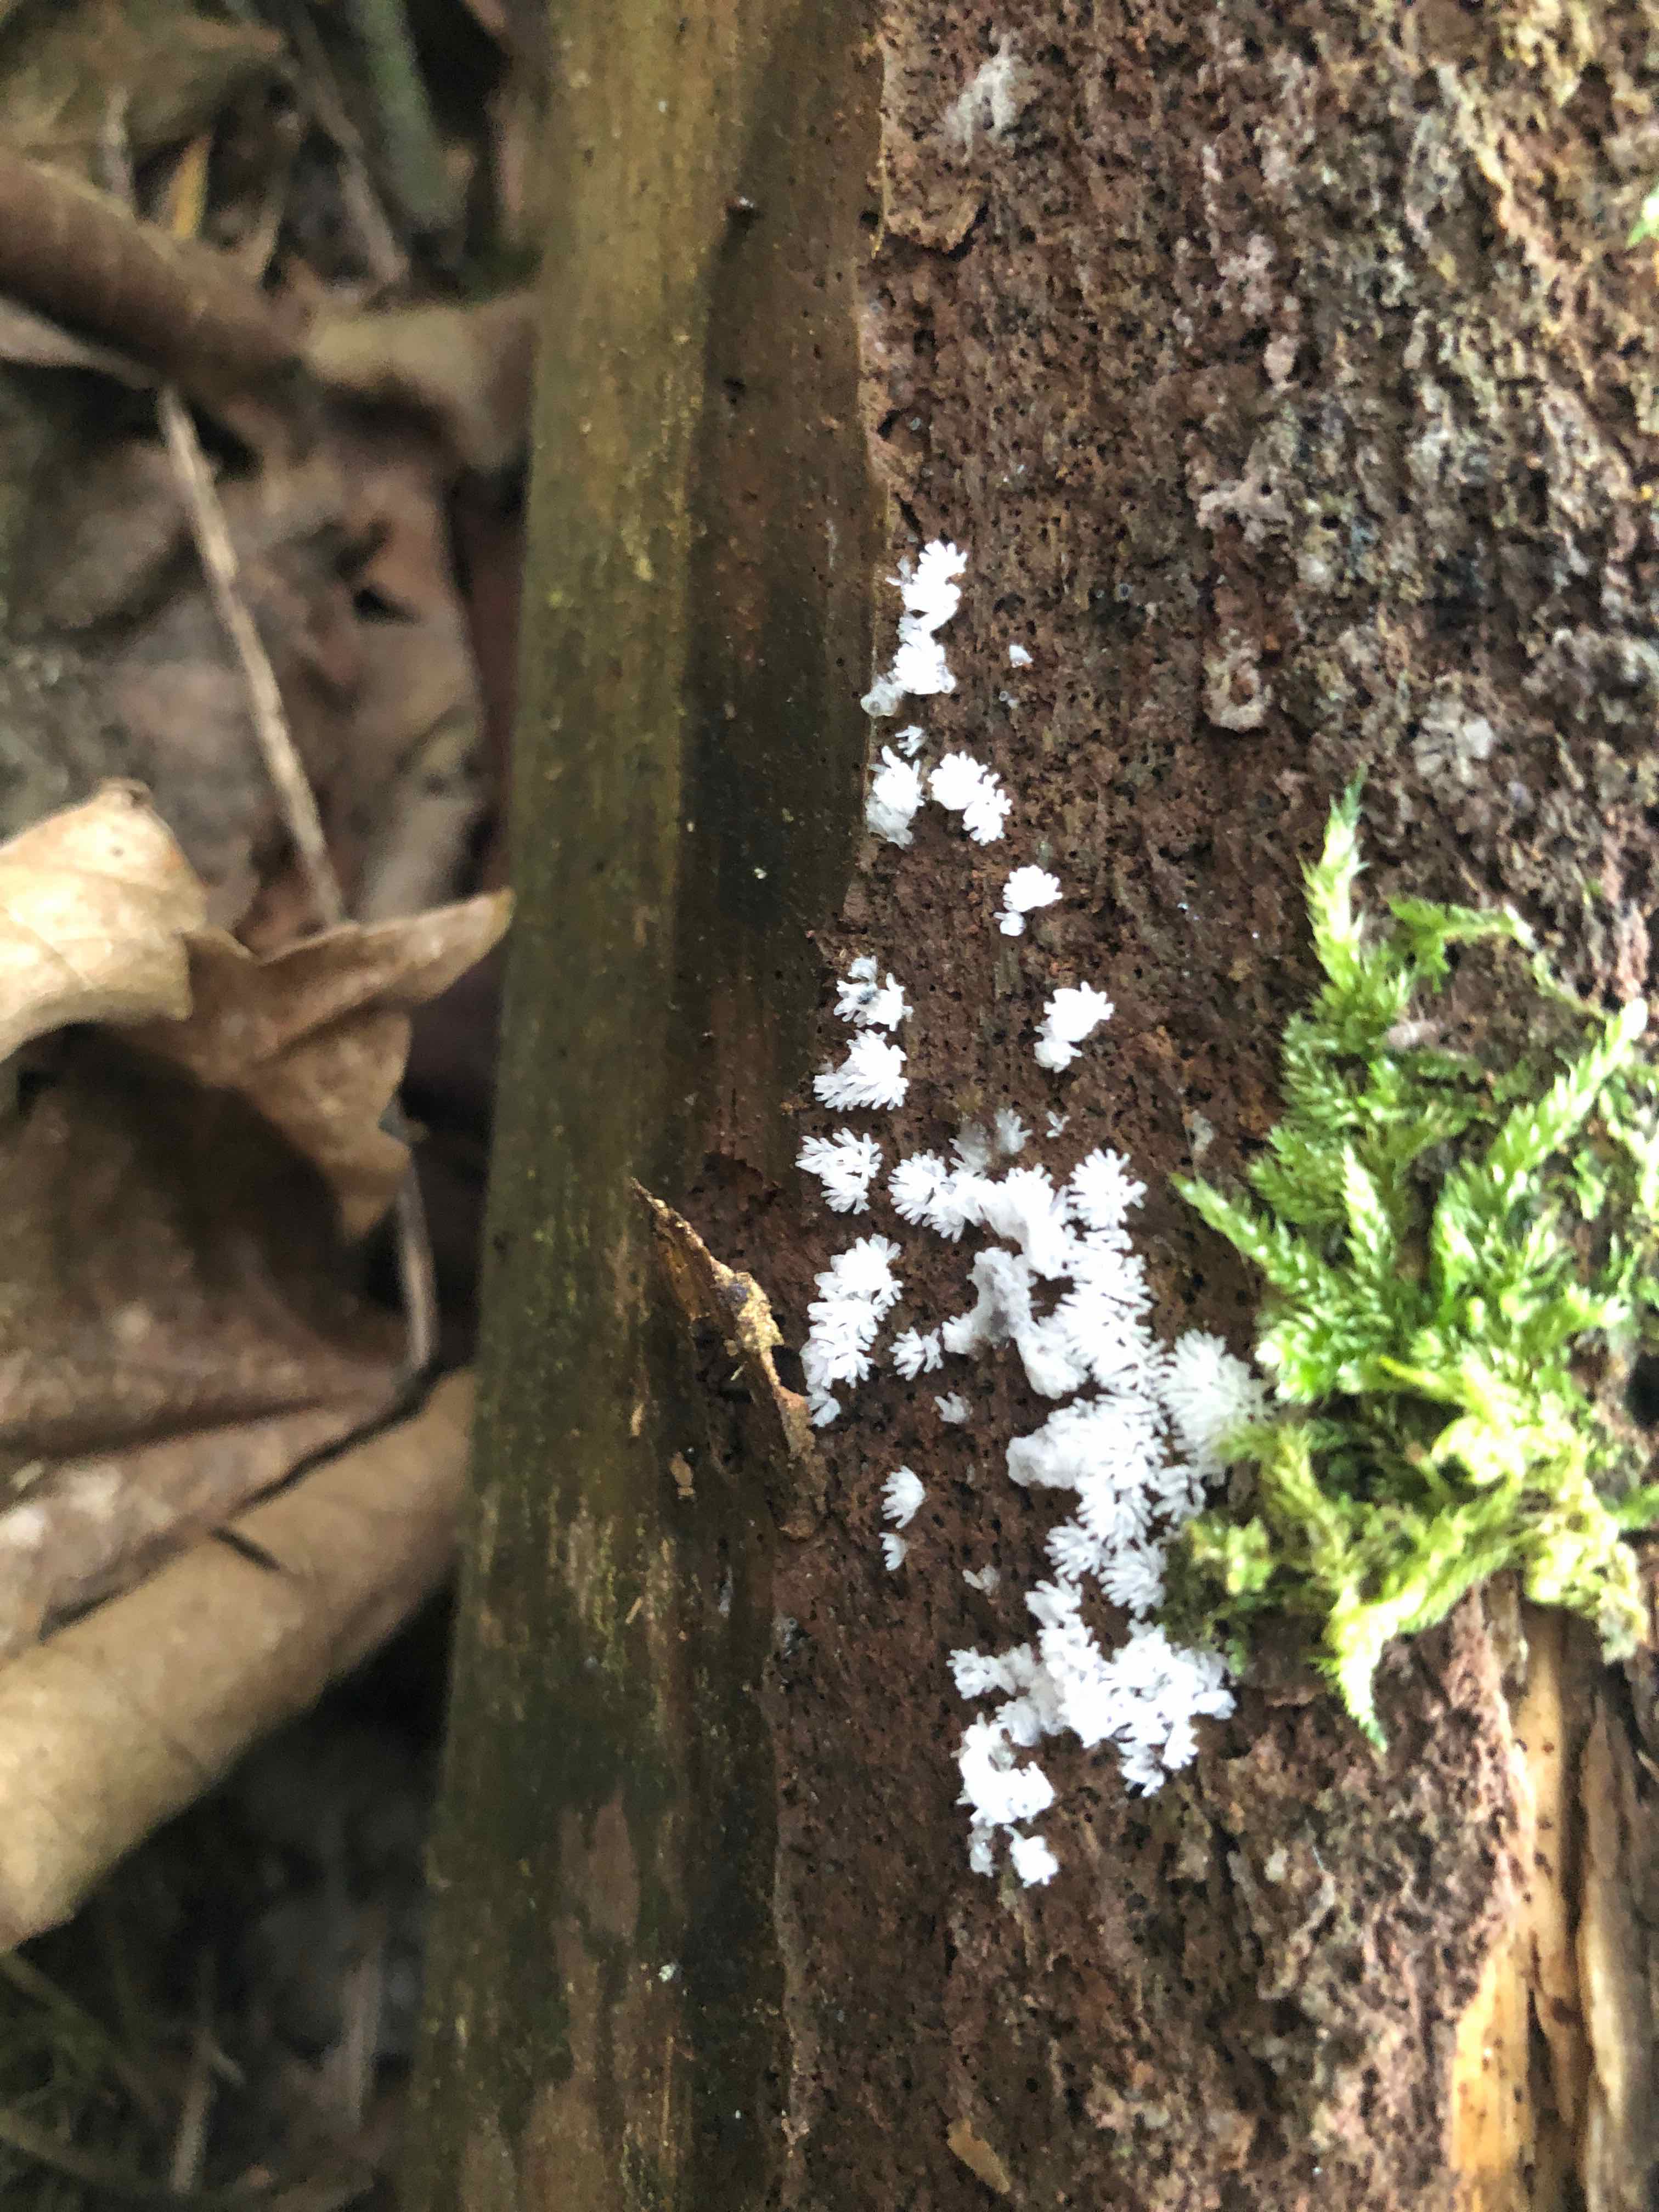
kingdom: Protozoa
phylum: Mycetozoa
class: Protosteliomycetes
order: Ceratiomyxales
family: Ceratiomyxaceae
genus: Ceratiomyxa
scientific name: Ceratiomyxa fruticulosa
